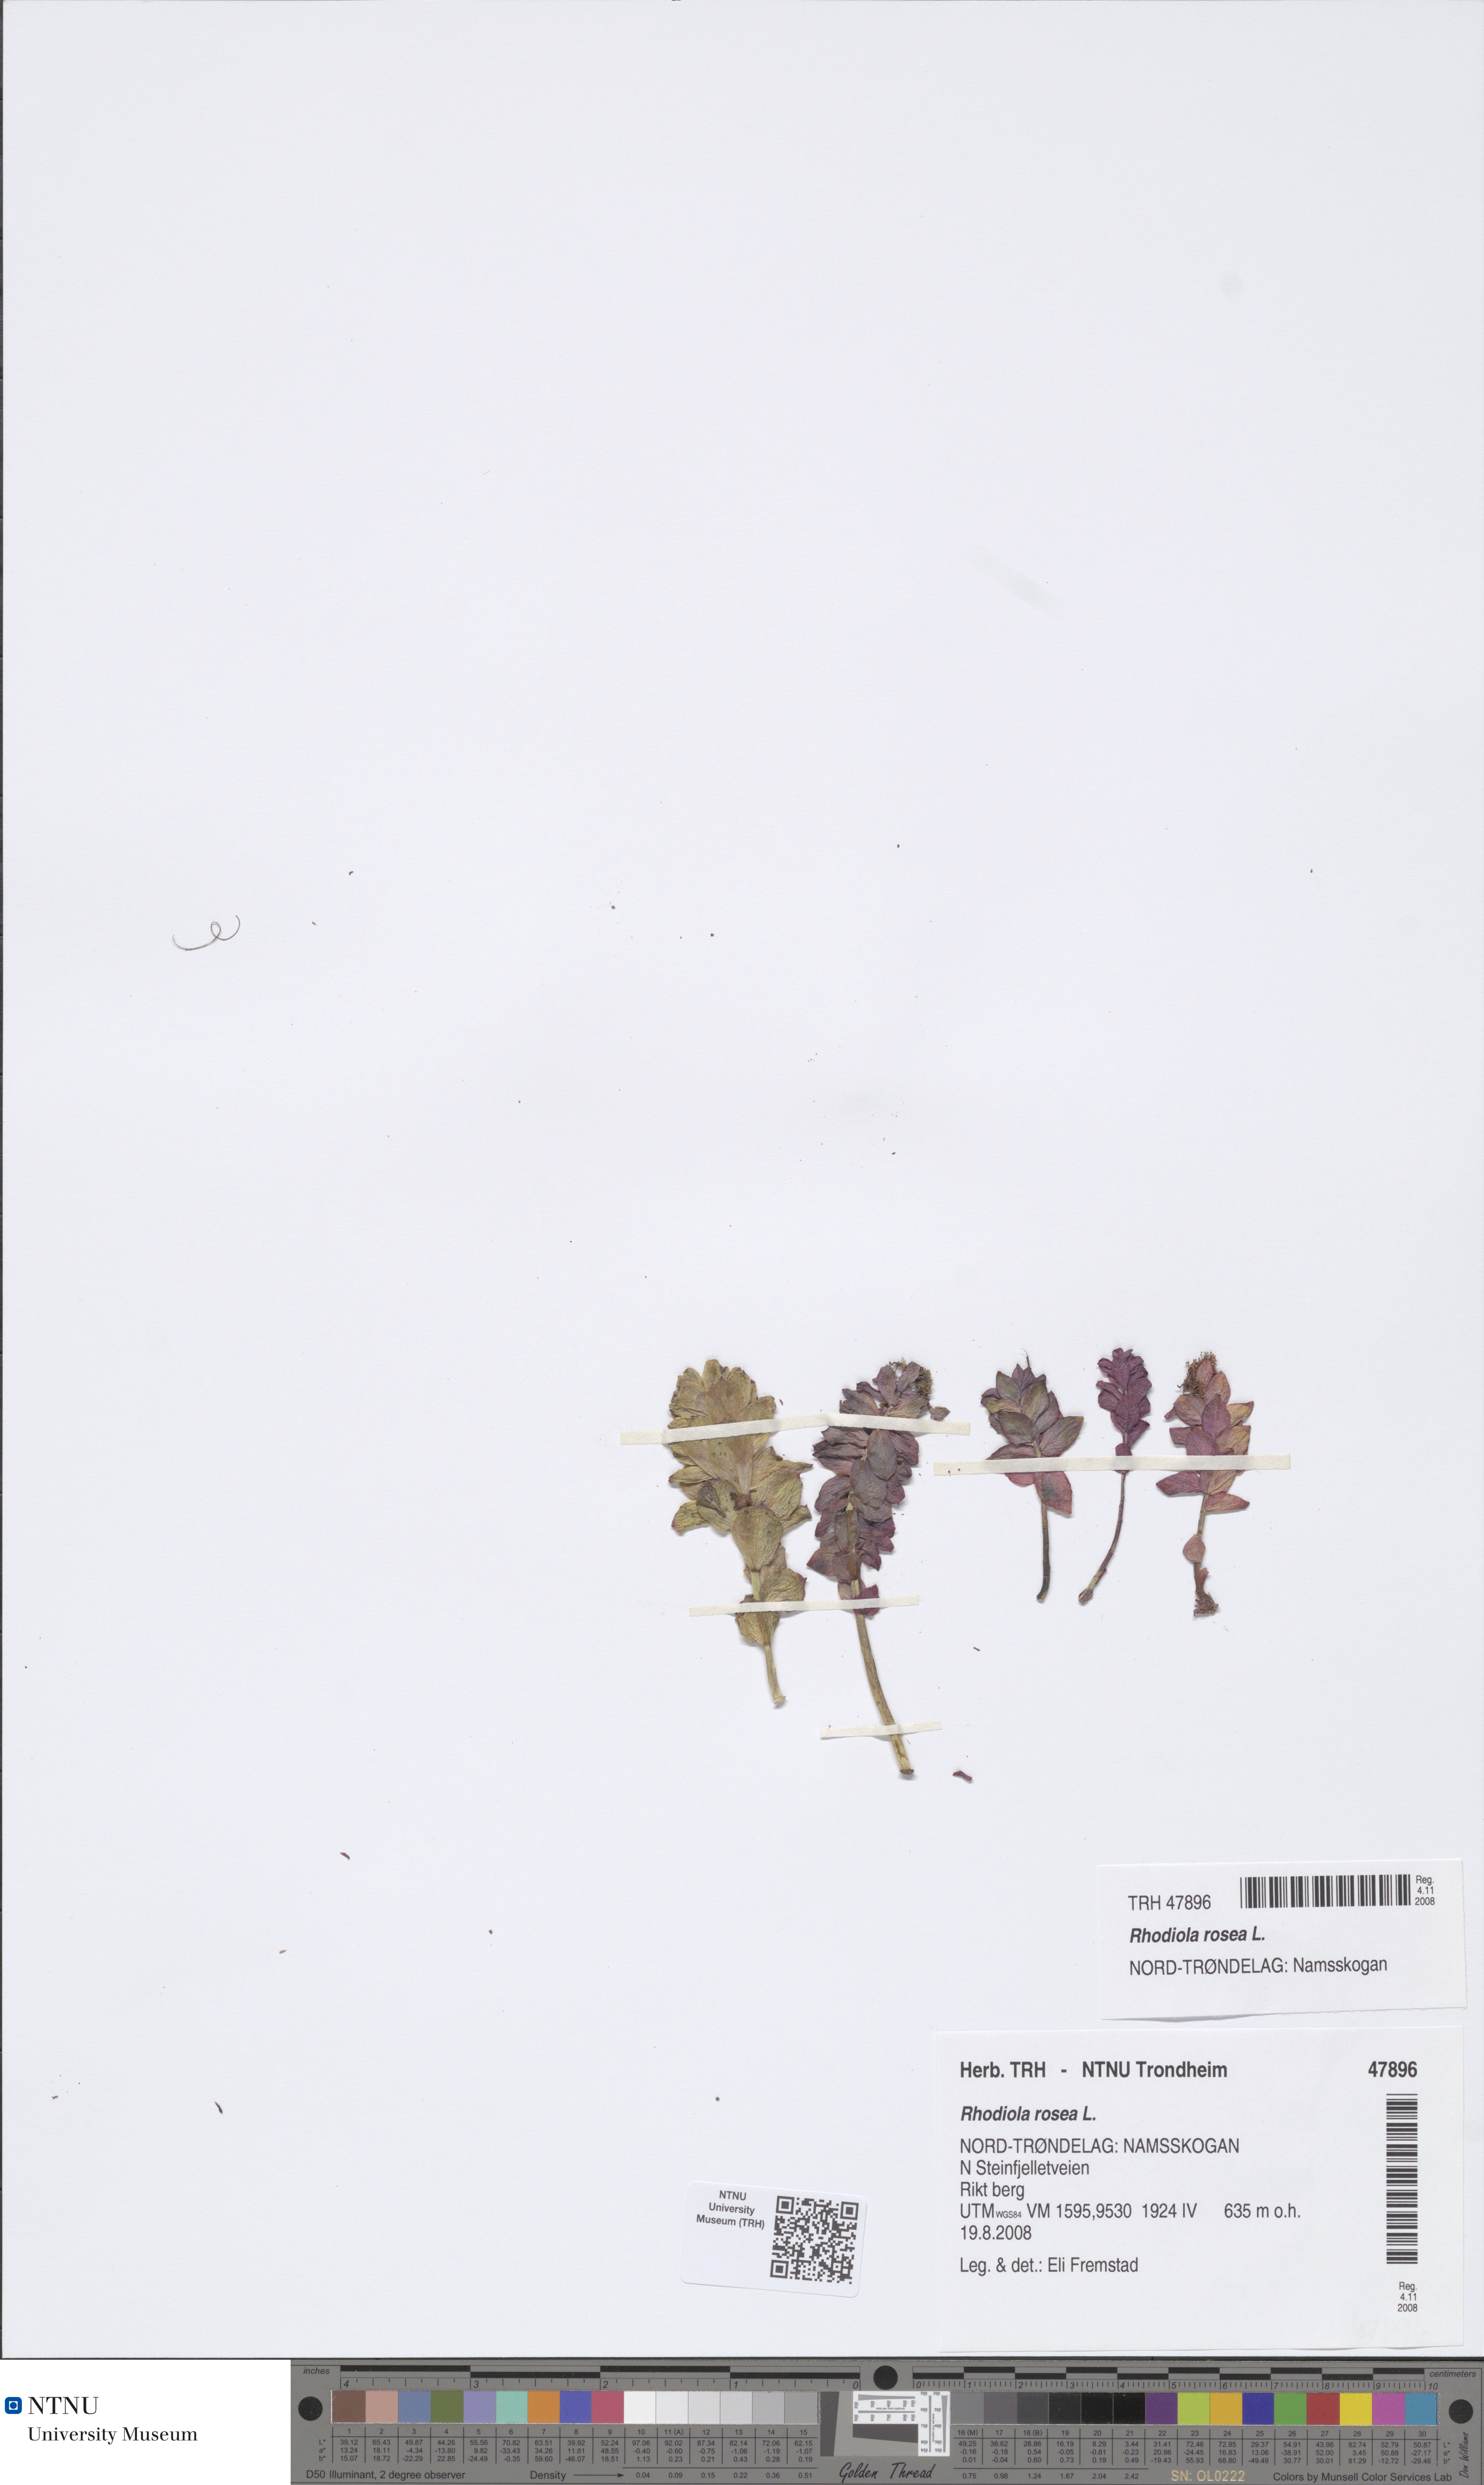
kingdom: Plantae
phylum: Tracheophyta
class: Magnoliopsida
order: Saxifragales
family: Crassulaceae
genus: Rhodiola
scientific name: Rhodiola rosea
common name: Roseroot
